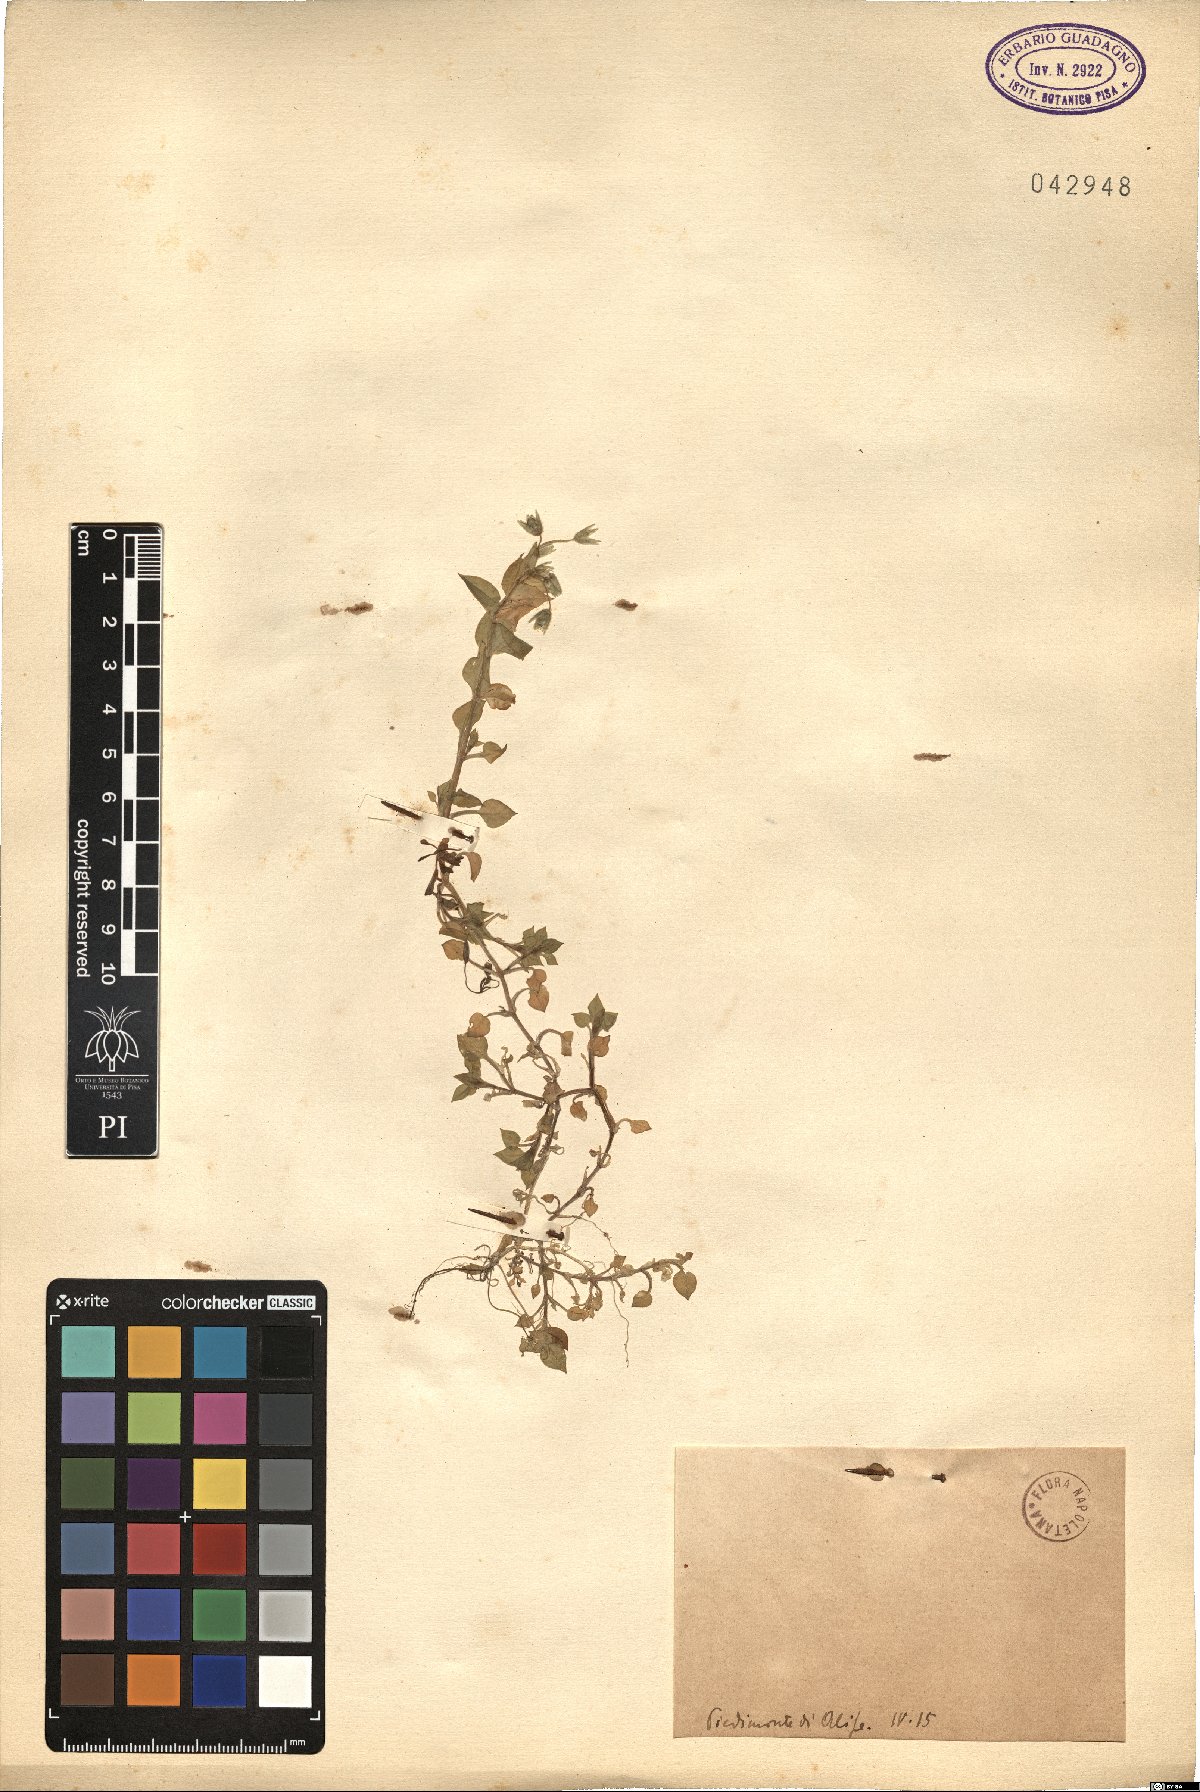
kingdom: Plantae
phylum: Tracheophyta
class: Magnoliopsida
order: Caryophyllales
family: Caryophyllaceae
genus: Stellaria
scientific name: Stellaria
